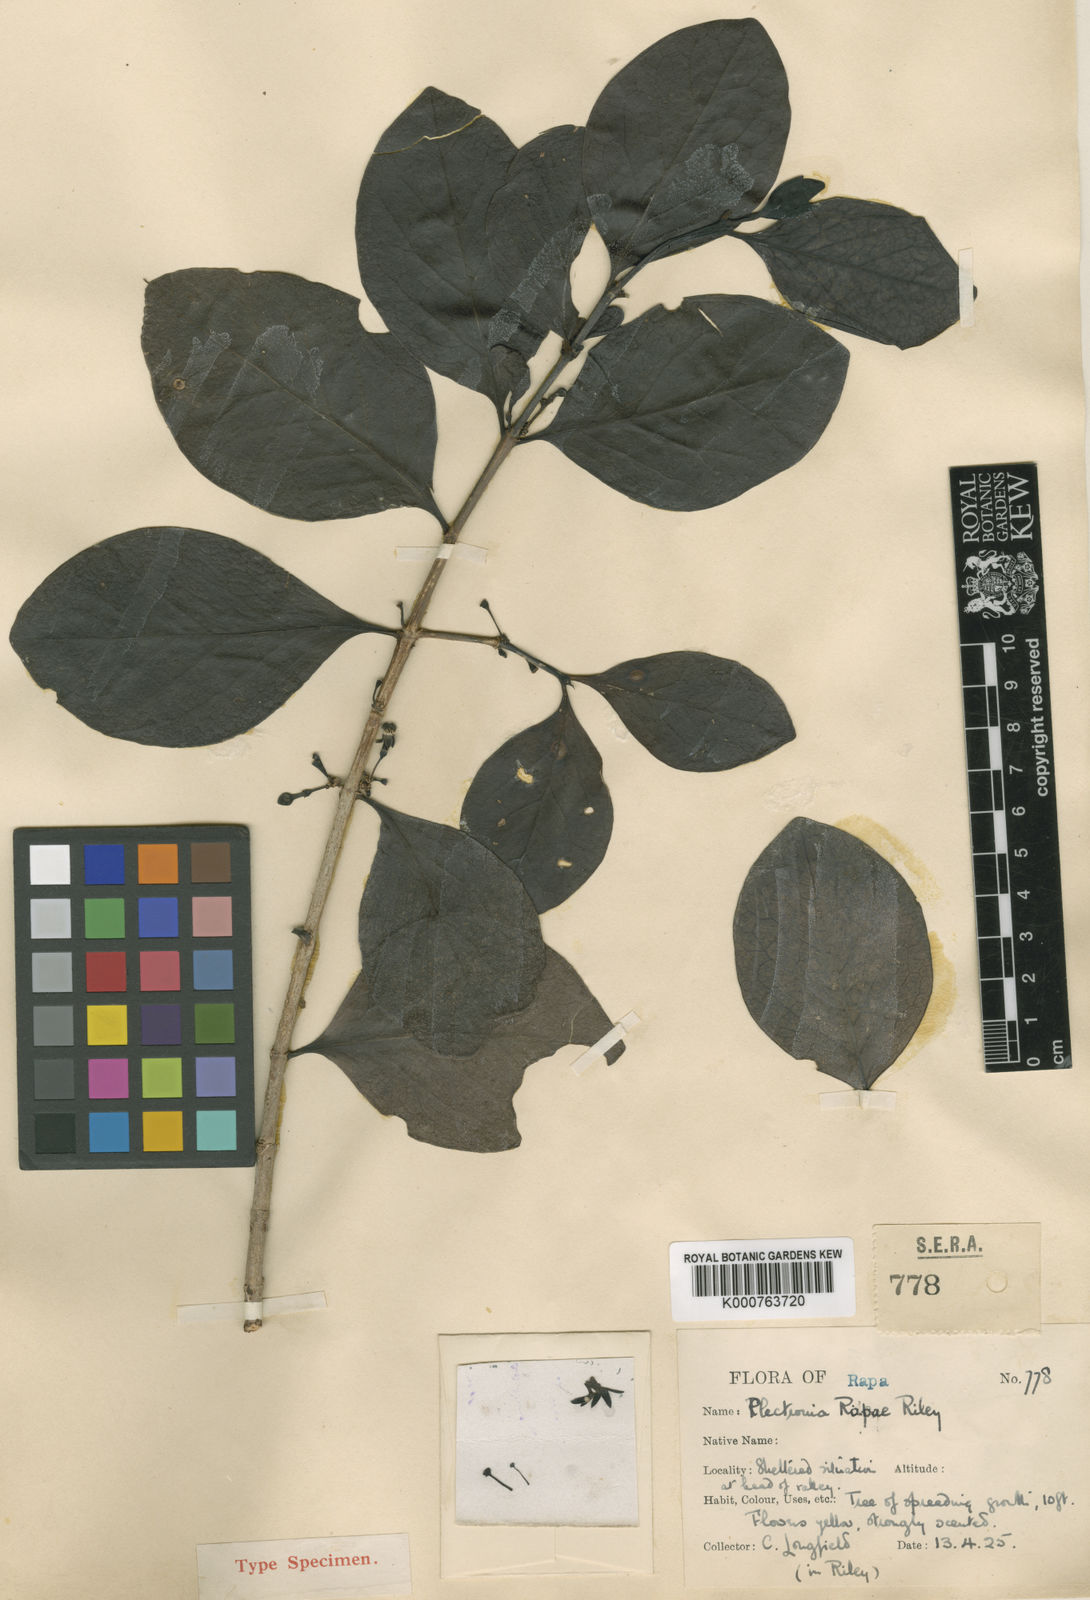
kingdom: Plantae
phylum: Tracheophyta
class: Magnoliopsida
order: Gentianales
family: Rubiaceae
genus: Cyclophyllum
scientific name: Cyclophyllum
